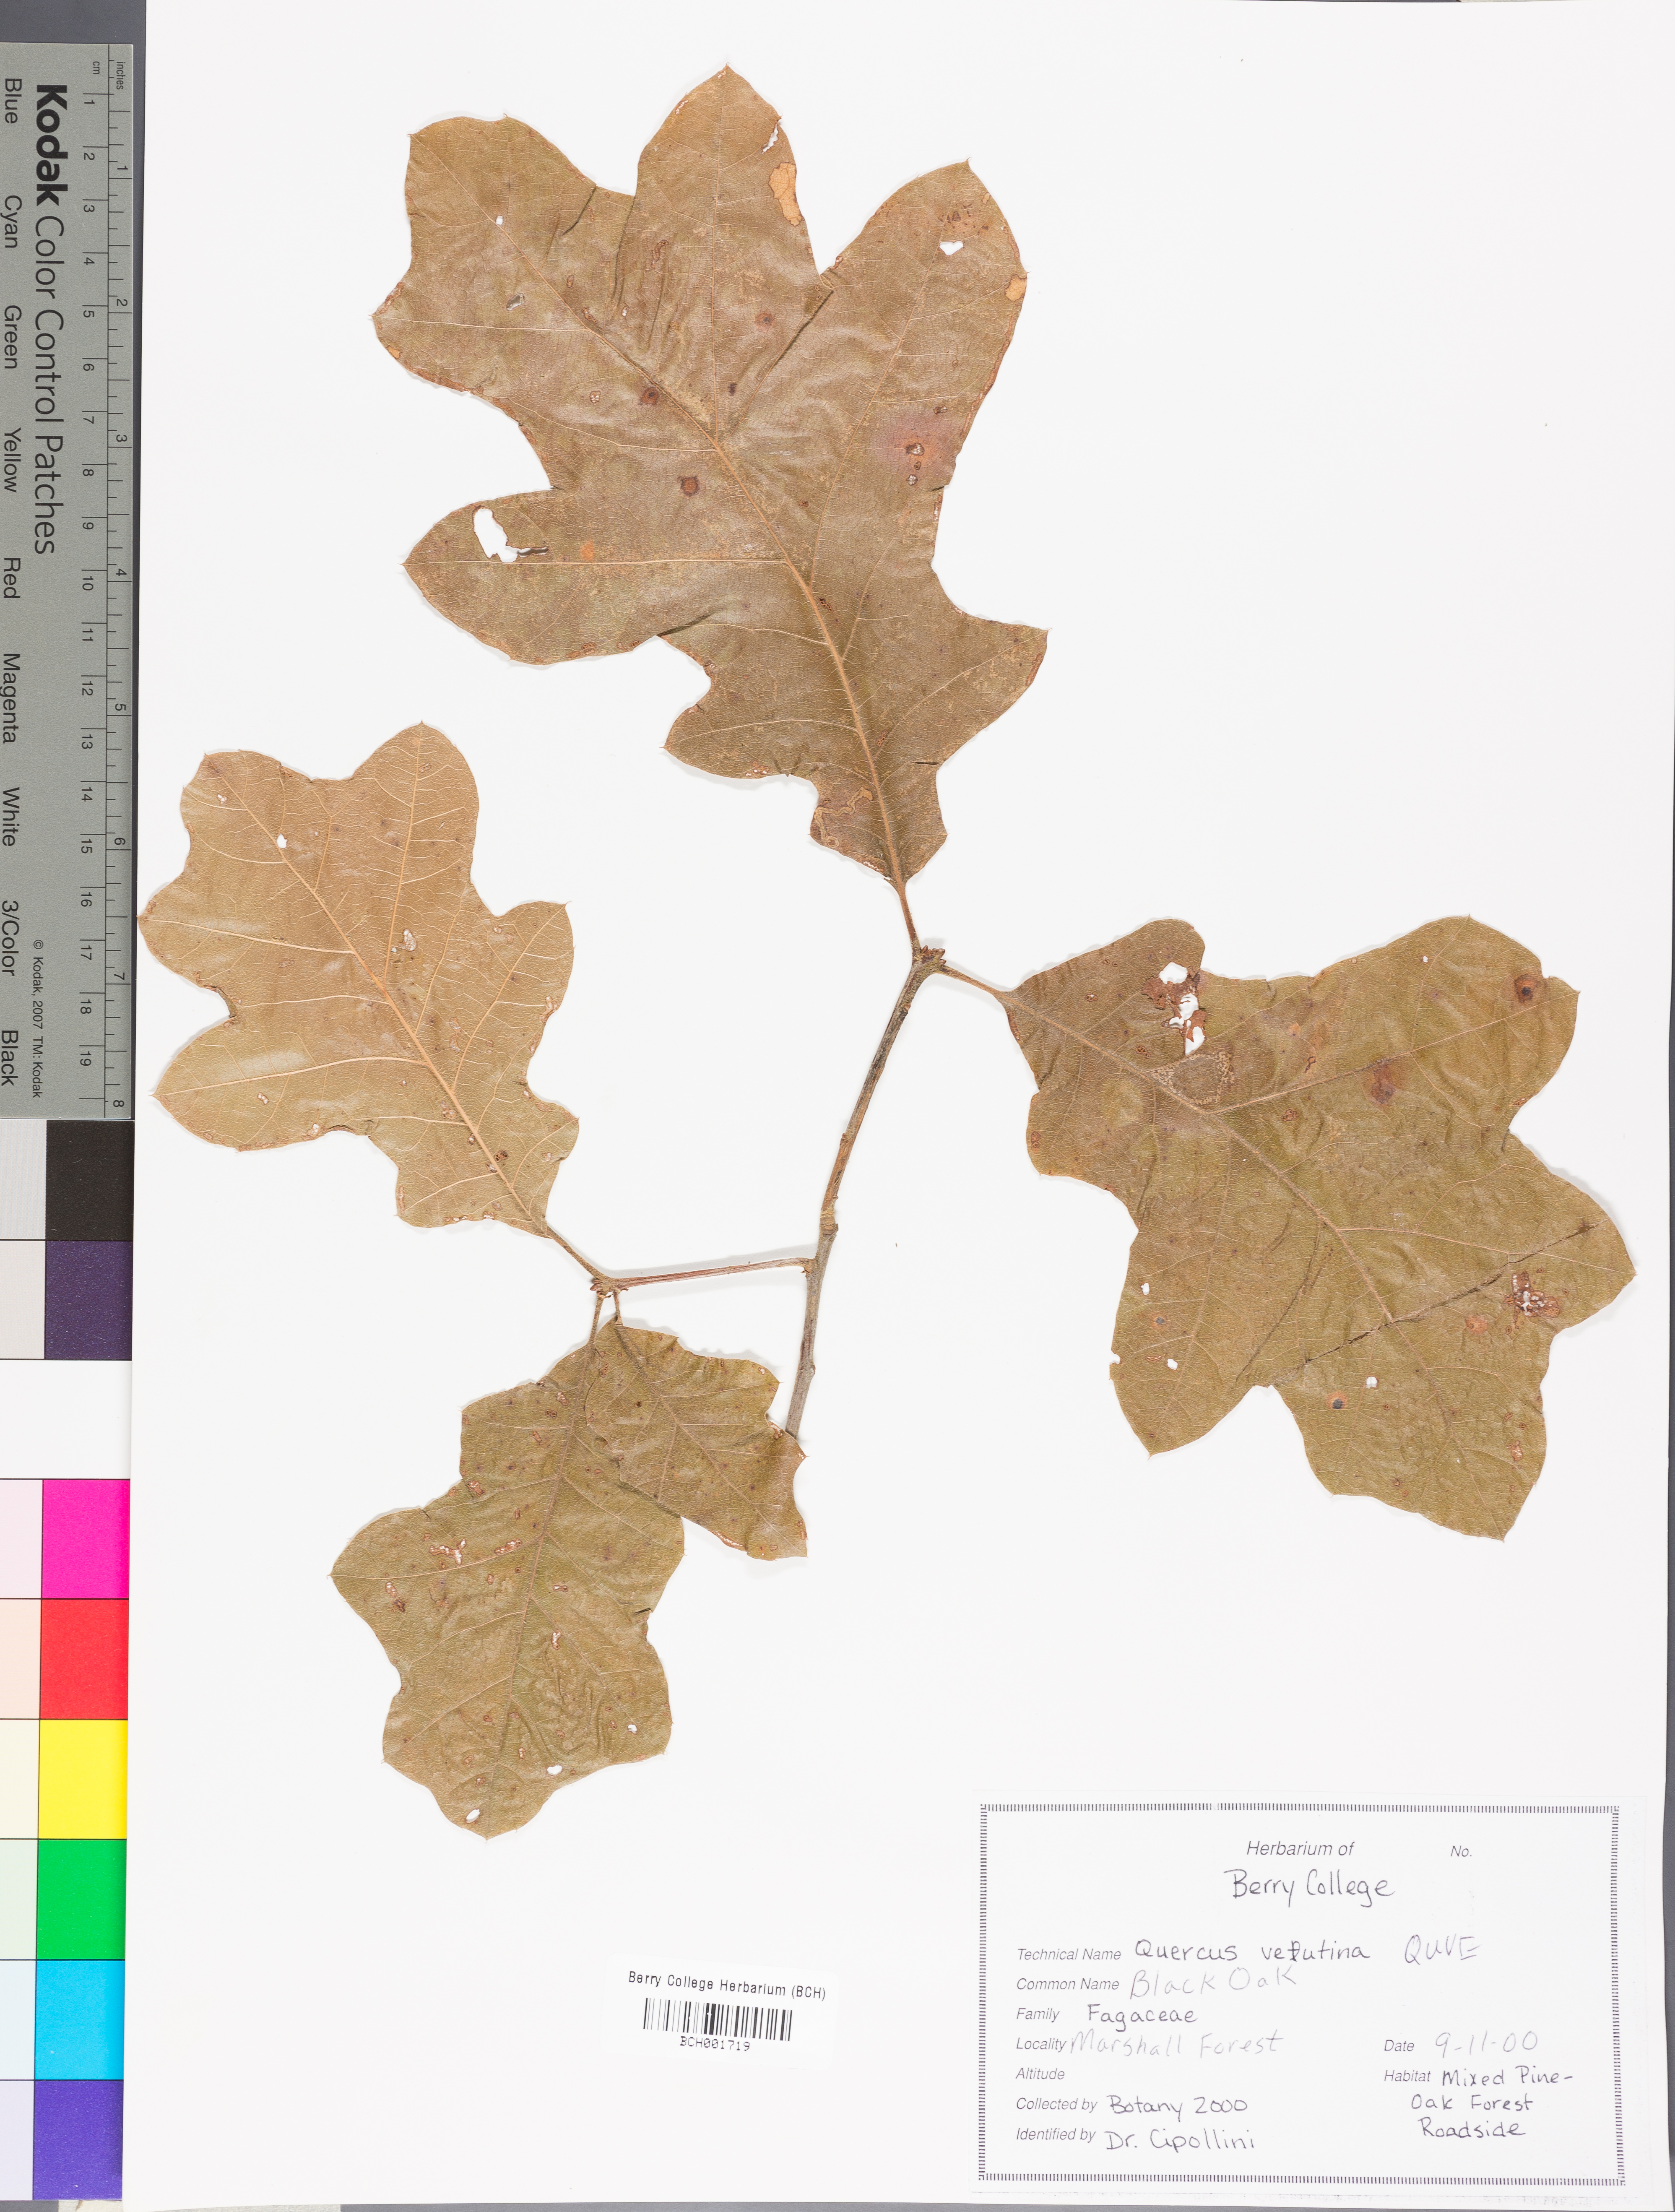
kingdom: Plantae
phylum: Tracheophyta
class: Magnoliopsida
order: Fagales
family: Fagaceae
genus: Quercus
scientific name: Quercus velutina
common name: Black oak
